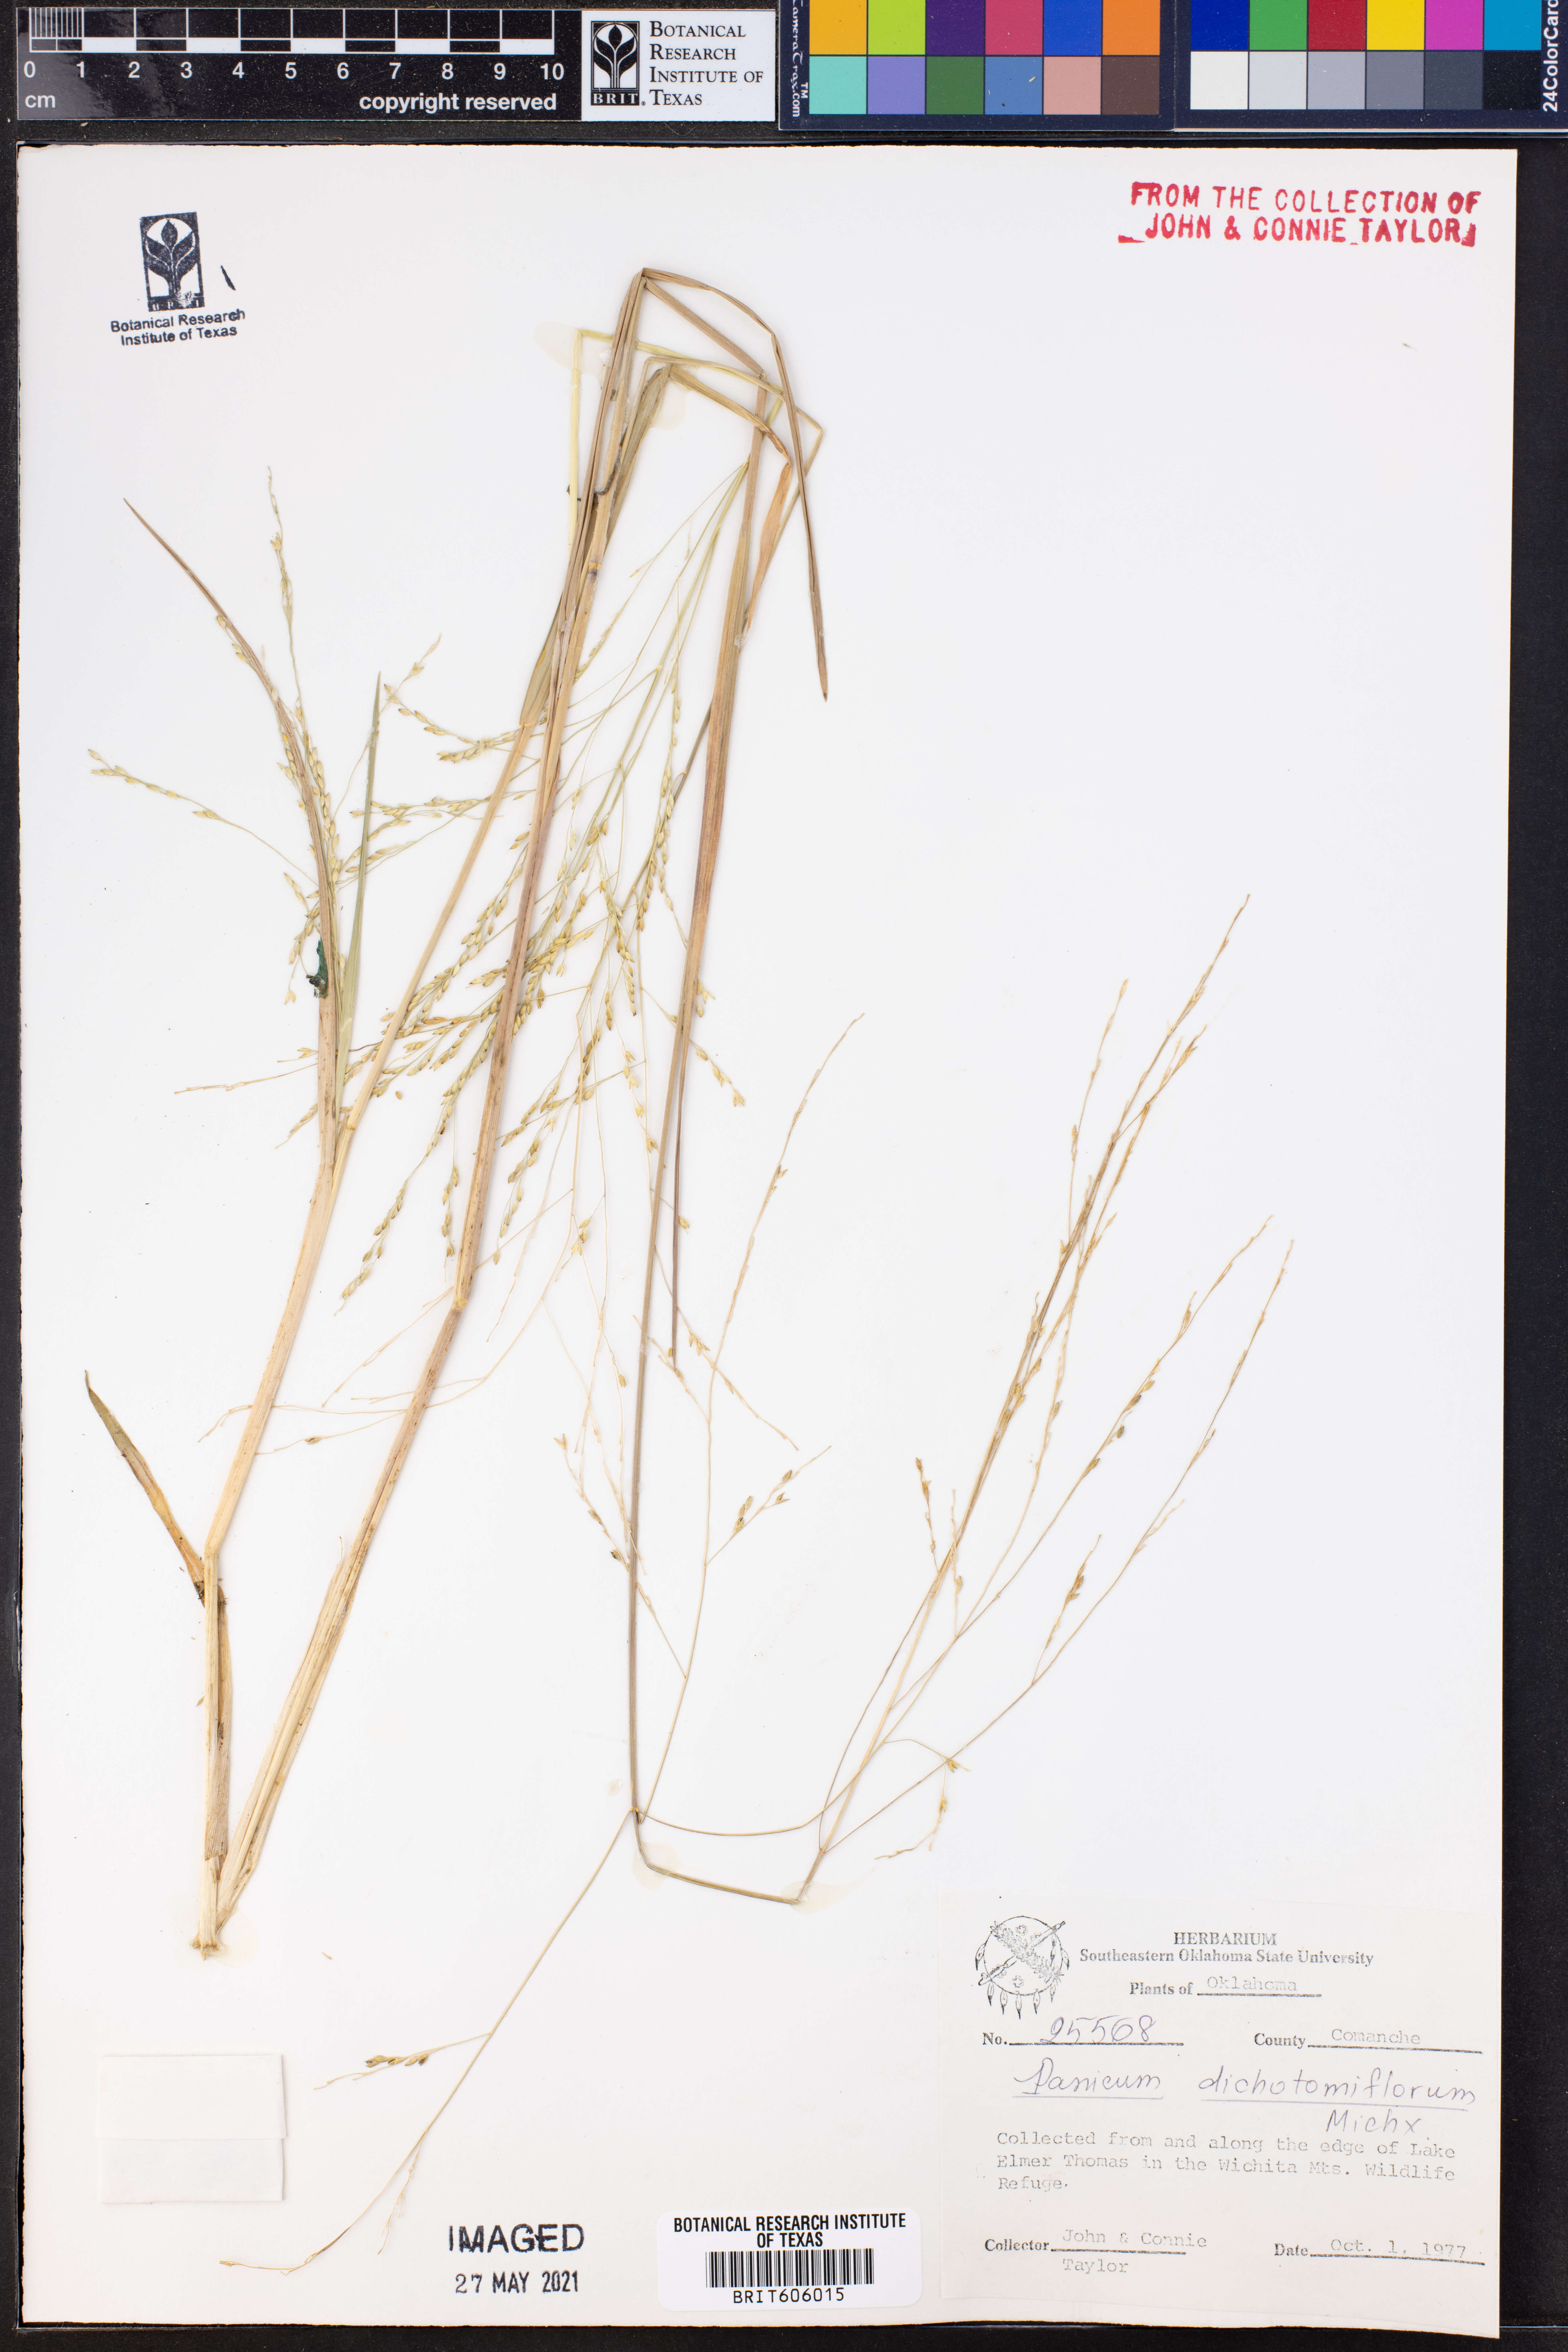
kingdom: Plantae
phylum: Tracheophyta
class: Liliopsida
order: Poales
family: Poaceae
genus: Panicum
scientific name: Panicum dichotomiflorum
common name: Autumn millet
